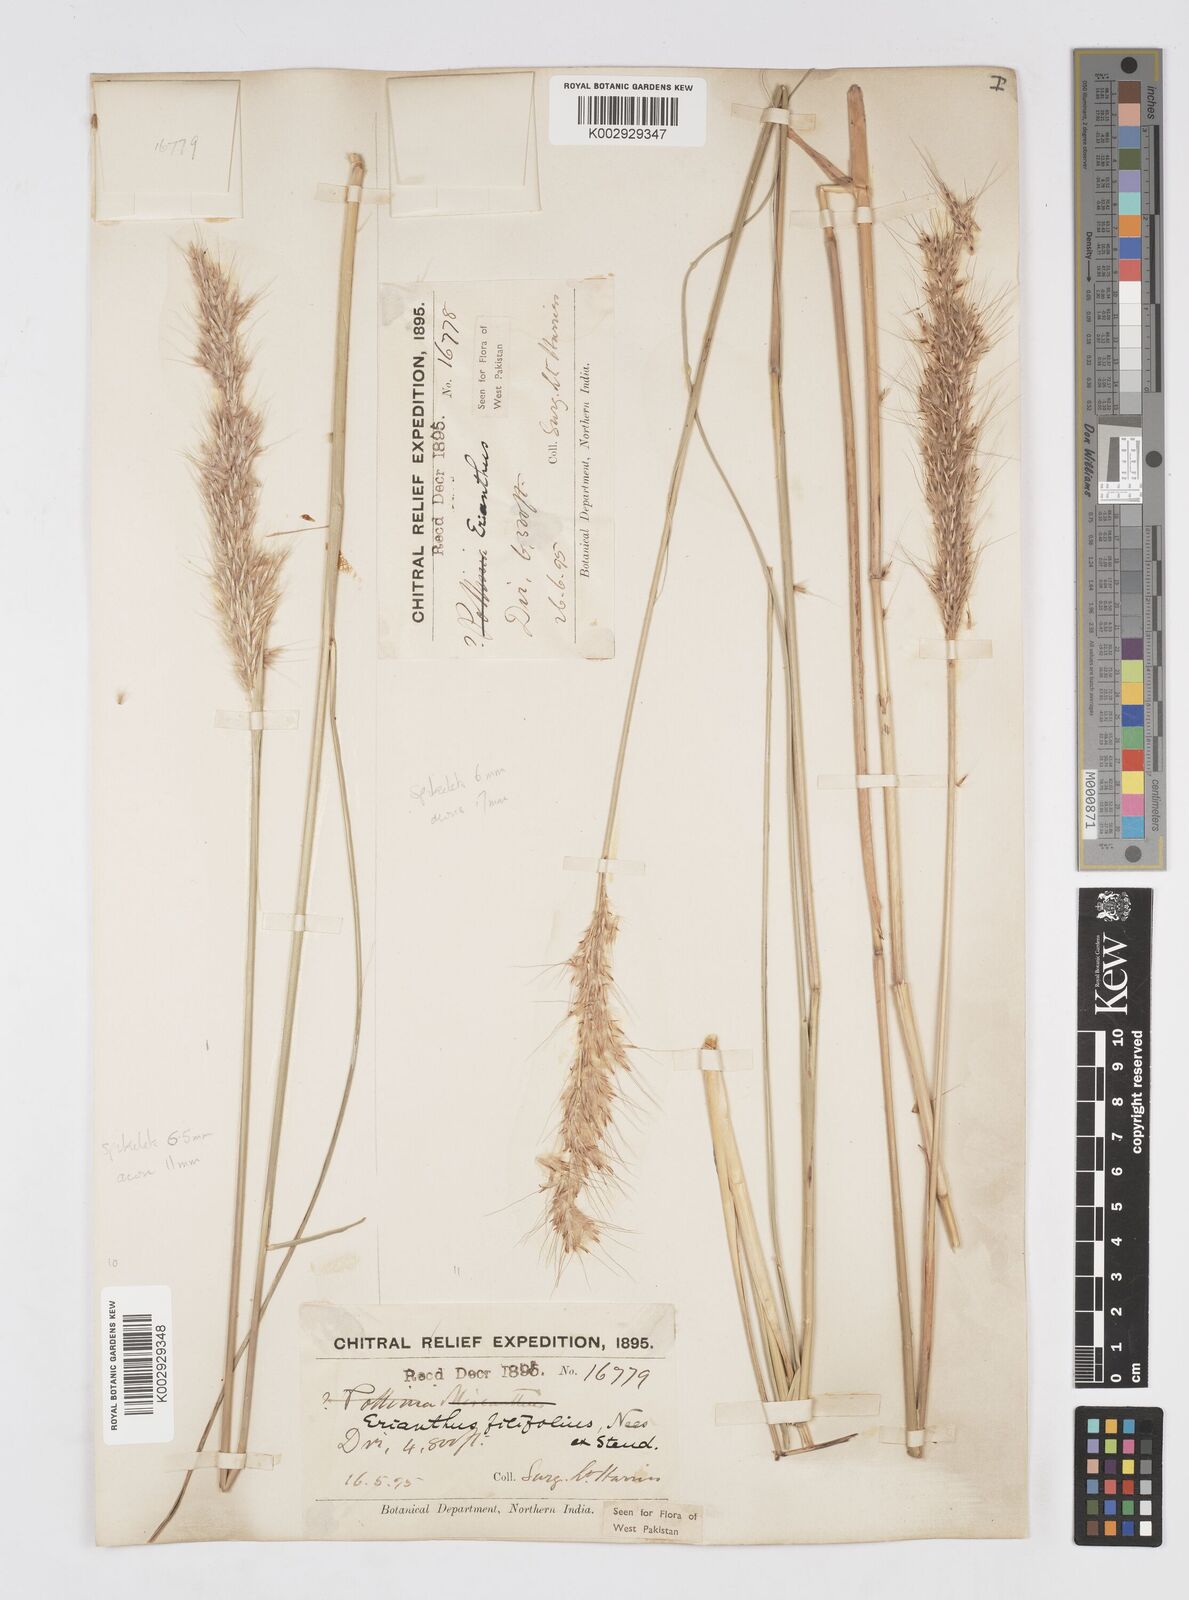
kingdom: Plantae
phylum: Tracheophyta
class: Liliopsida
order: Poales
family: Poaceae
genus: Saccharum
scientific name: Saccharum filifolium
